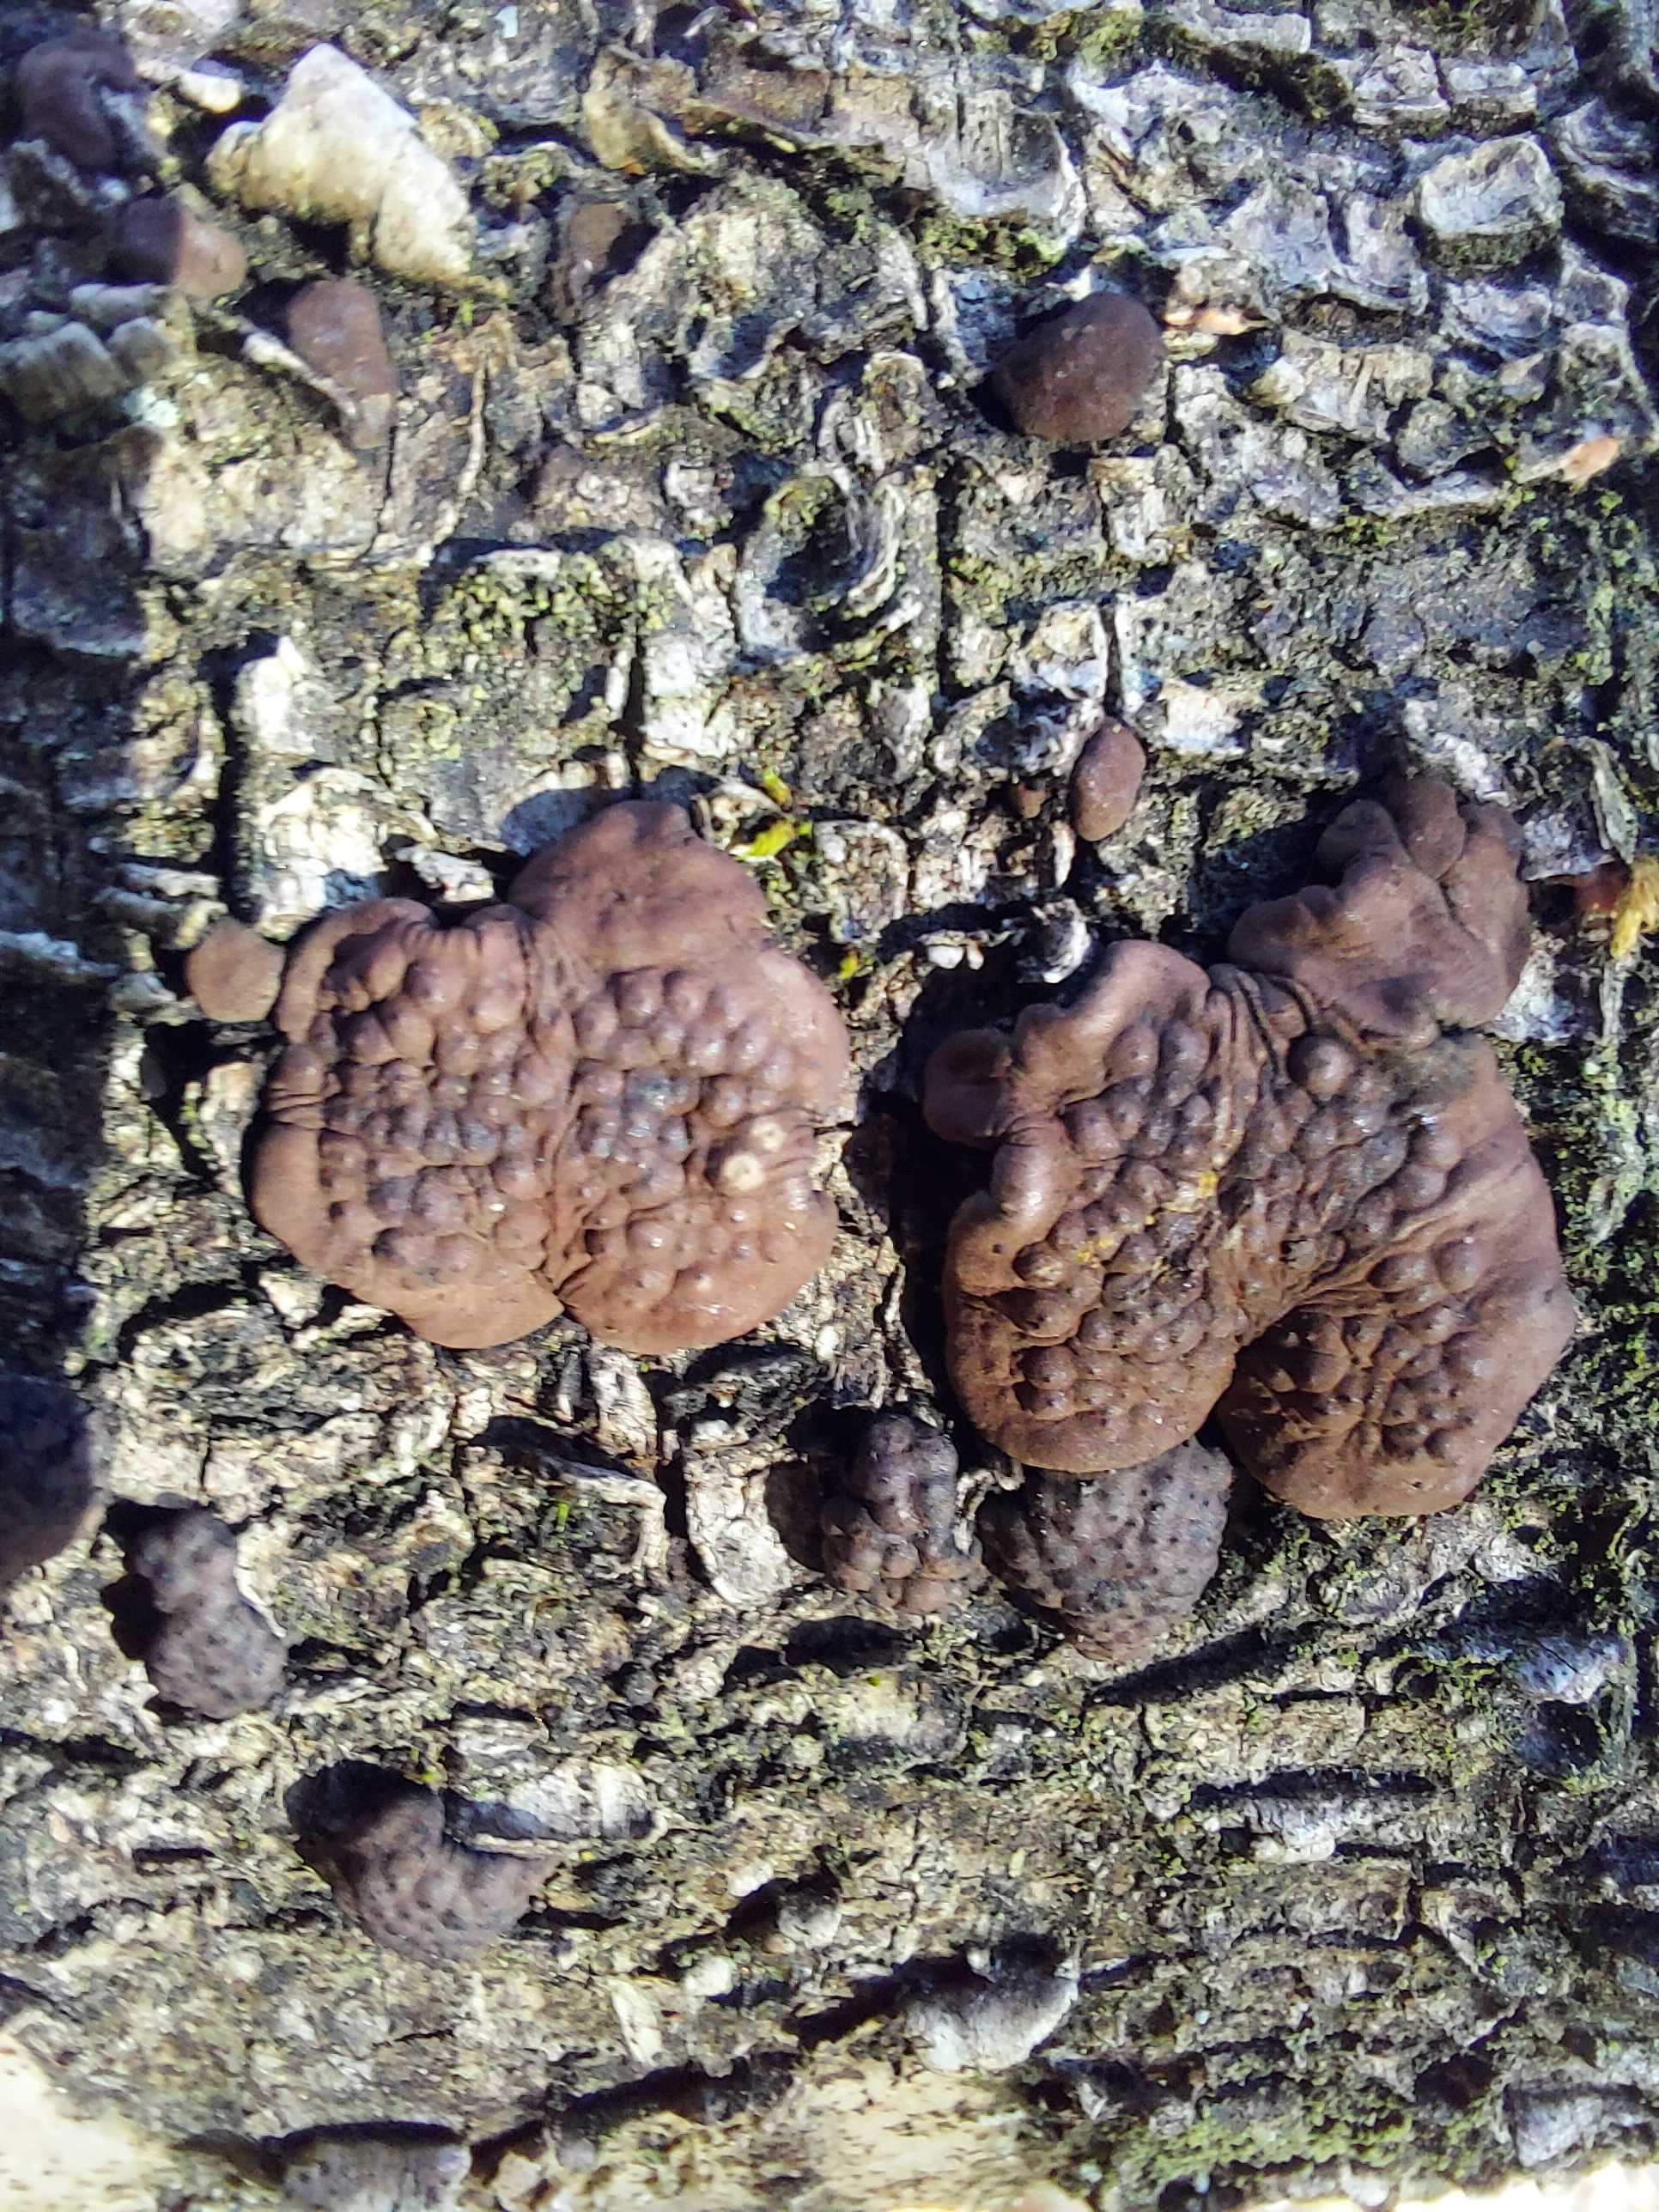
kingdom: Fungi
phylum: Ascomycota
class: Sordariomycetes
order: Xylariales
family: Hypoxylaceae
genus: Jackrogersella
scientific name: Jackrogersella multiformis
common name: foranderlig kulbær
